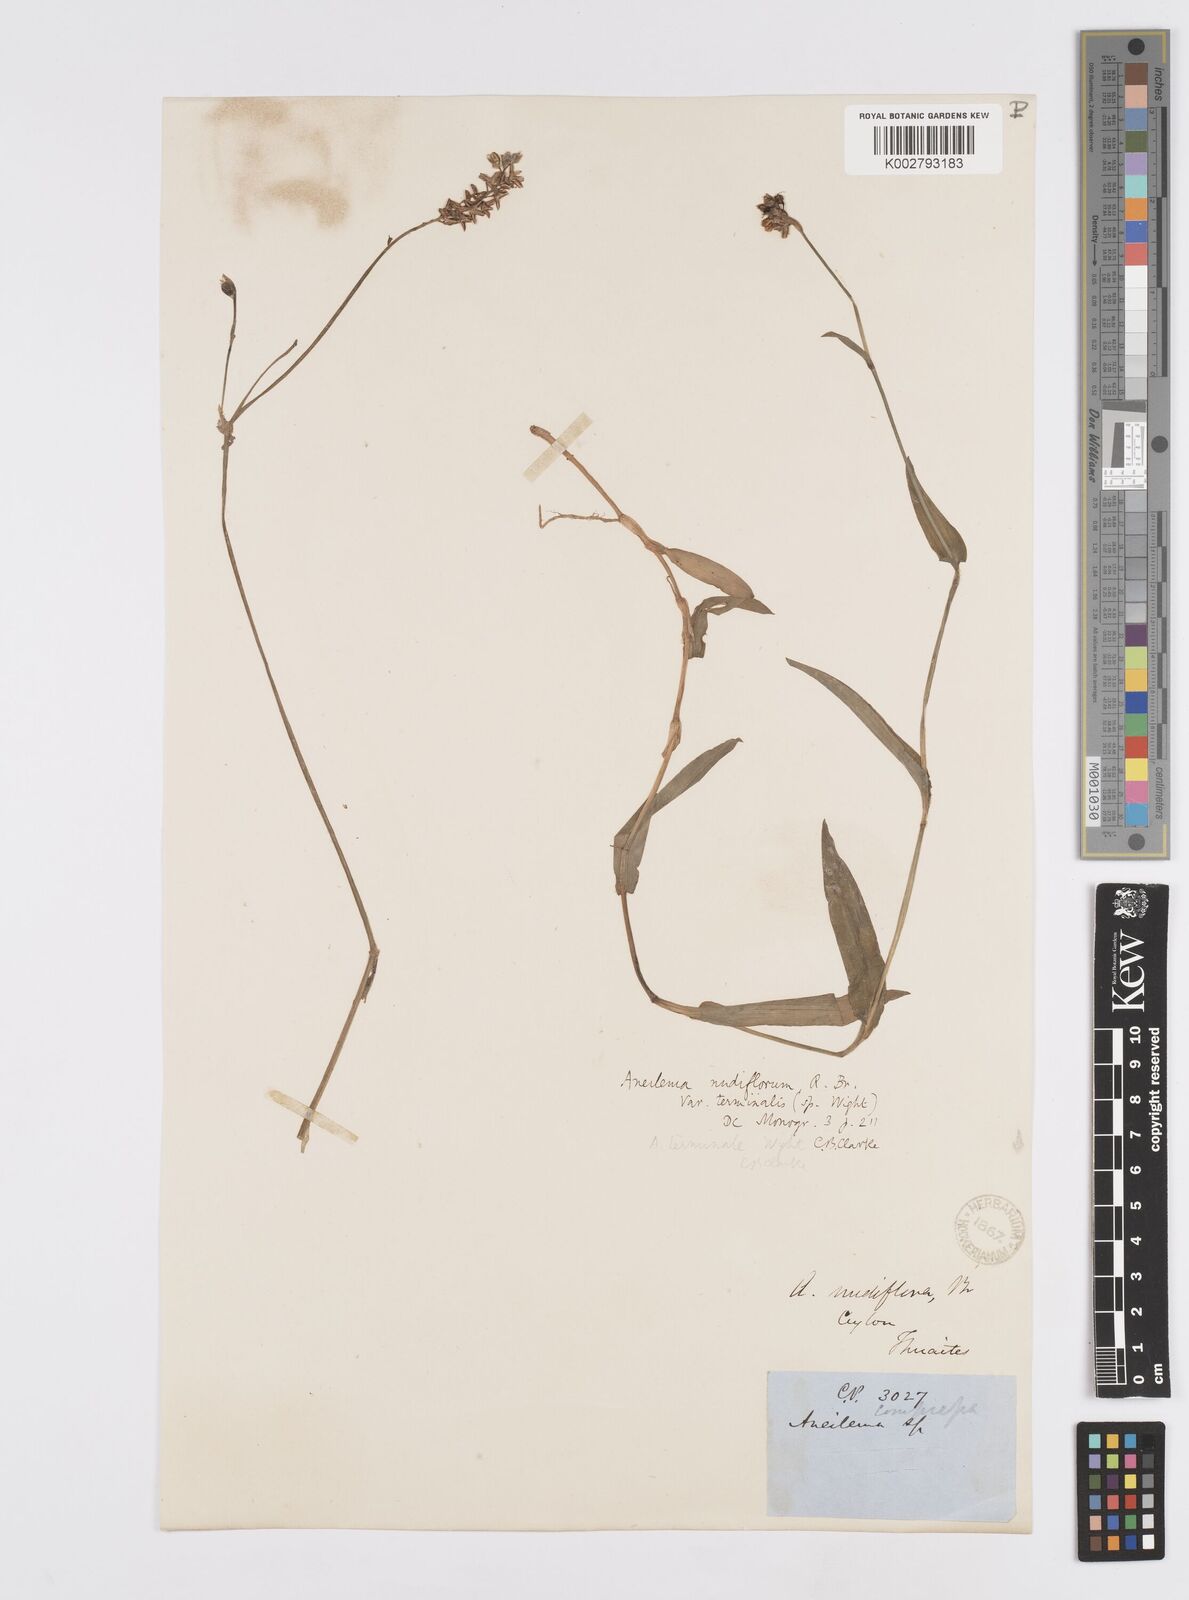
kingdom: Plantae
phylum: Tracheophyta
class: Liliopsida
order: Commelinales
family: Commelinaceae
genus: Murdannia
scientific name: Murdannia nudiflora
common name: Nakedstem dewflower
